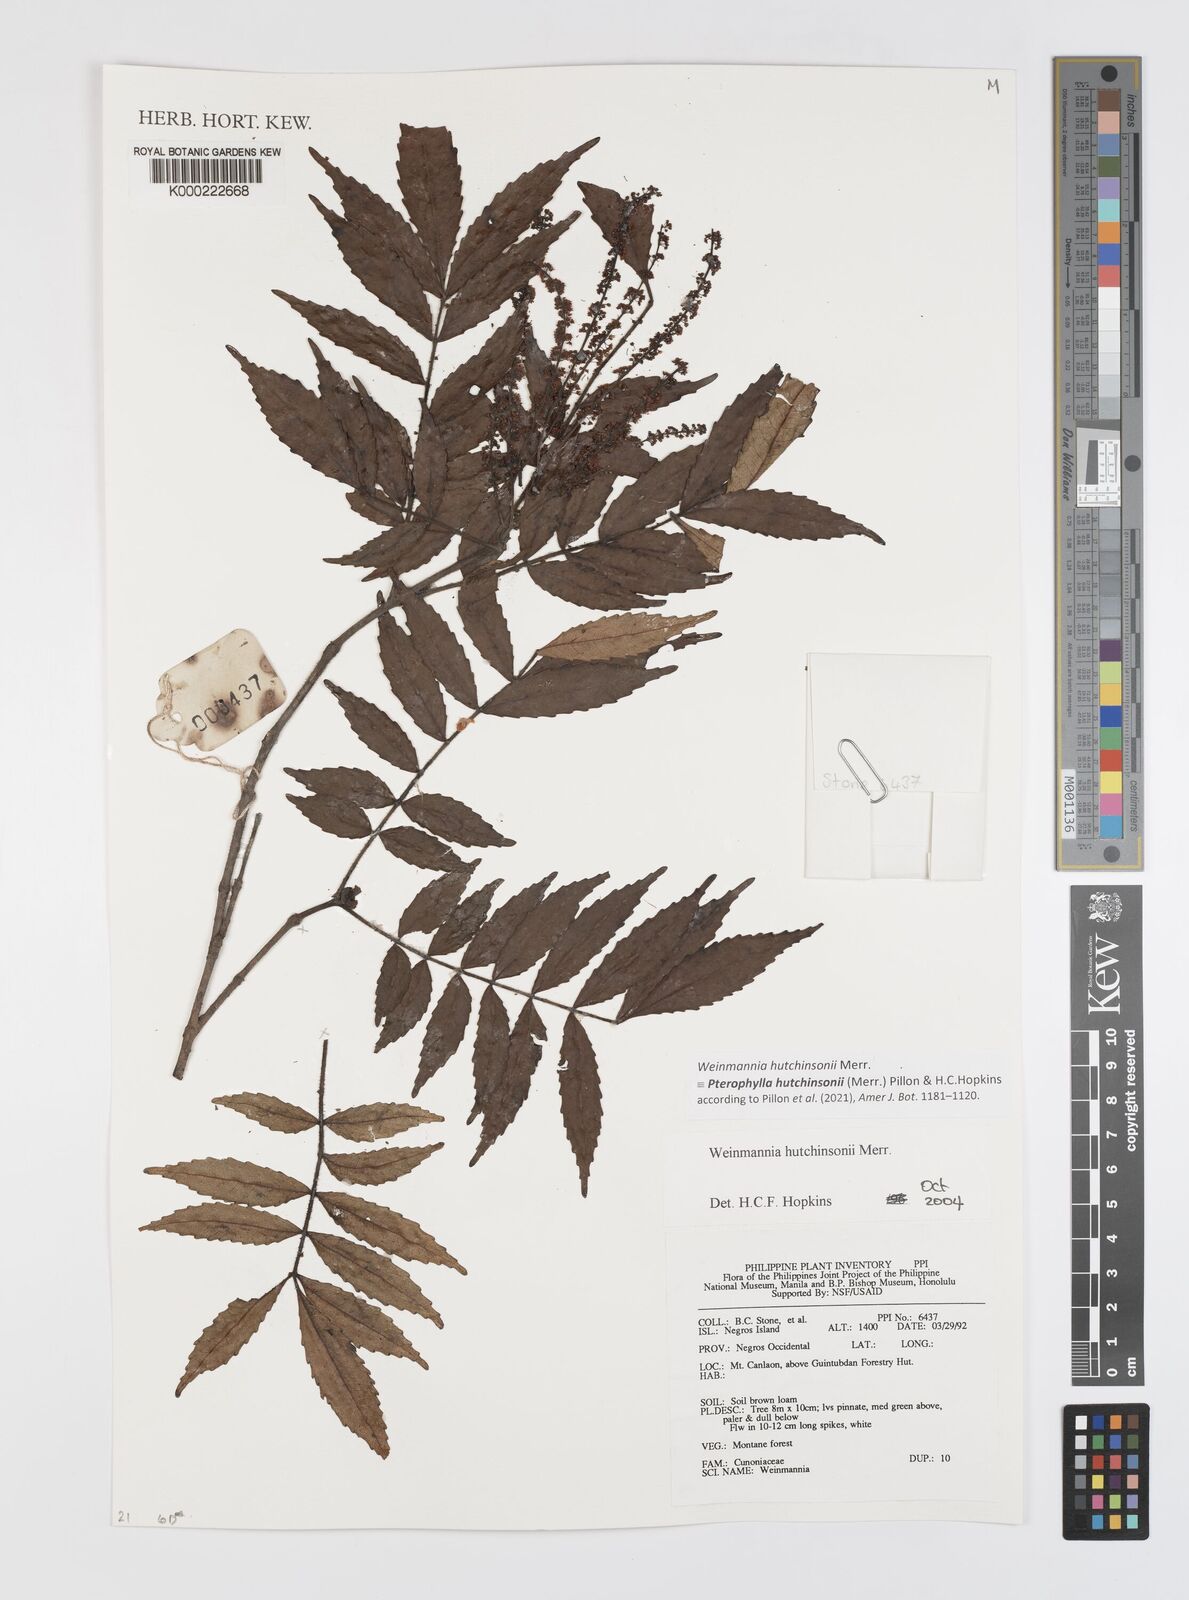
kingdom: Plantae
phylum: Tracheophyta
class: Magnoliopsida
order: Oxalidales
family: Cunoniaceae
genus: Pterophylla
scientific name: Pterophylla hutchinsonii
